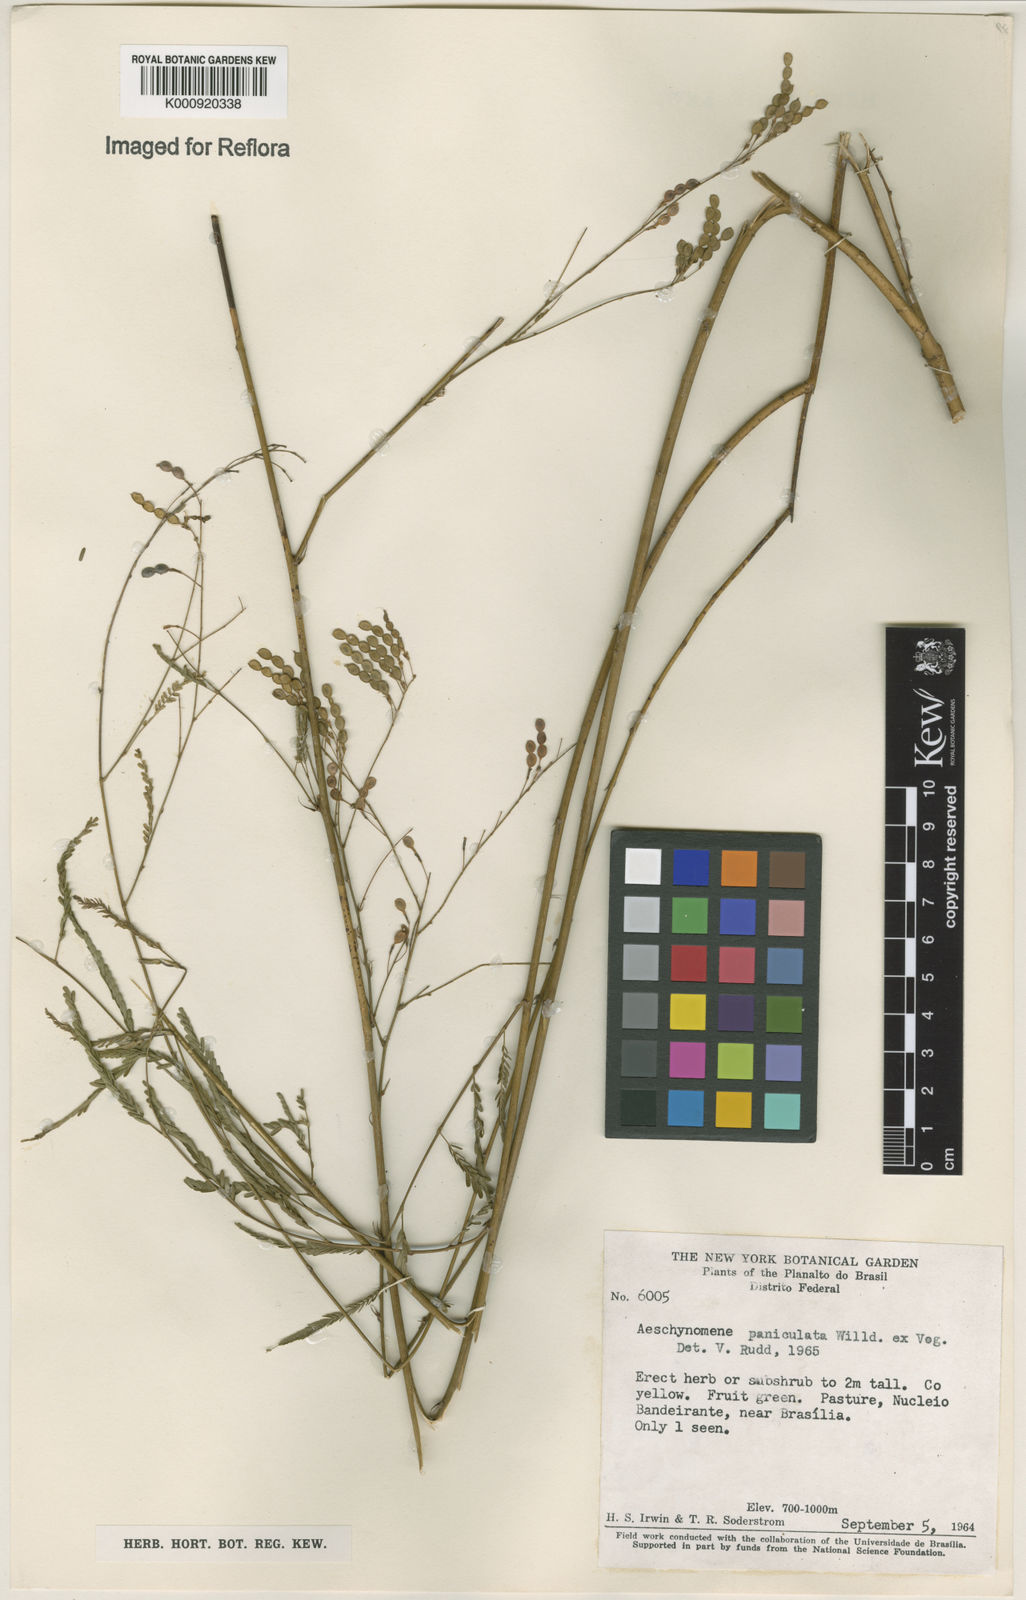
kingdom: Plantae
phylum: Tracheophyta
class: Magnoliopsida
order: Fabales
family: Fabaceae
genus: Ctenodon
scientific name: Ctenodon paniculatus
